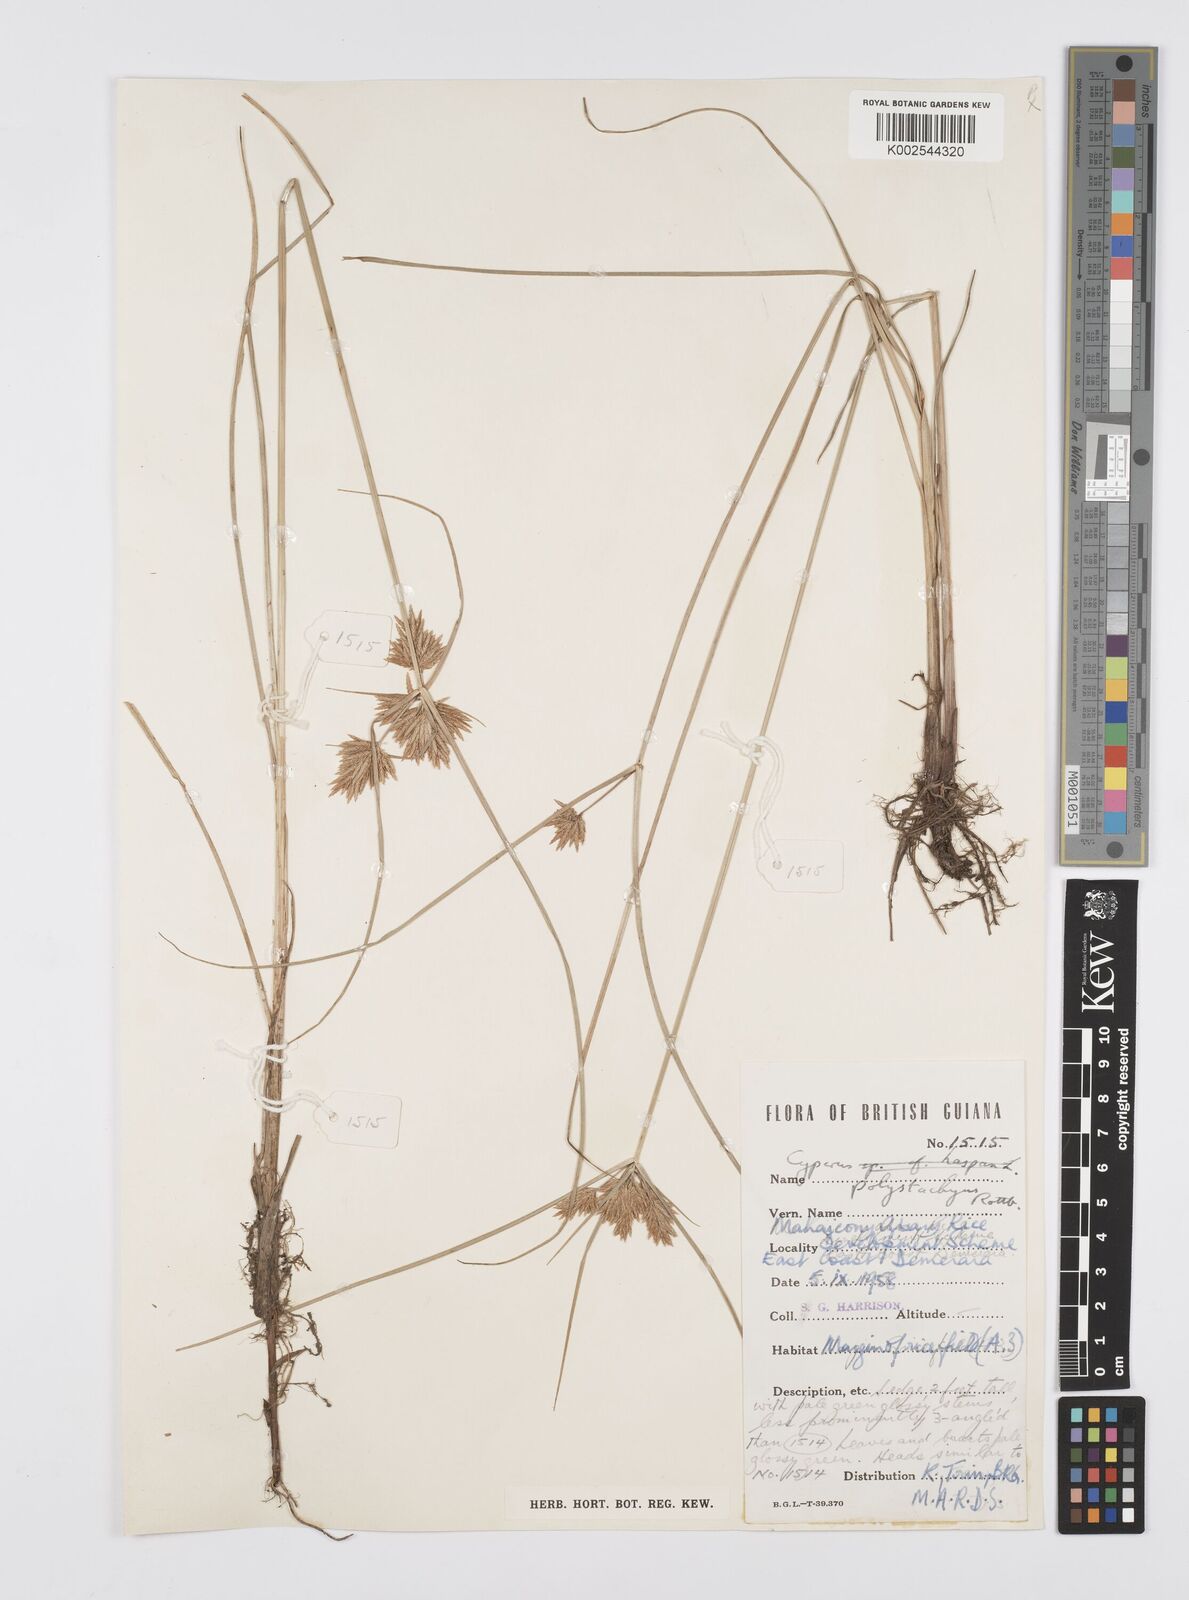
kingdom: Plantae
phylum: Tracheophyta
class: Liliopsida
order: Poales
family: Cyperaceae
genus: Cyperus
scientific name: Cyperus polystachyos
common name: Bunchy flat sedge
